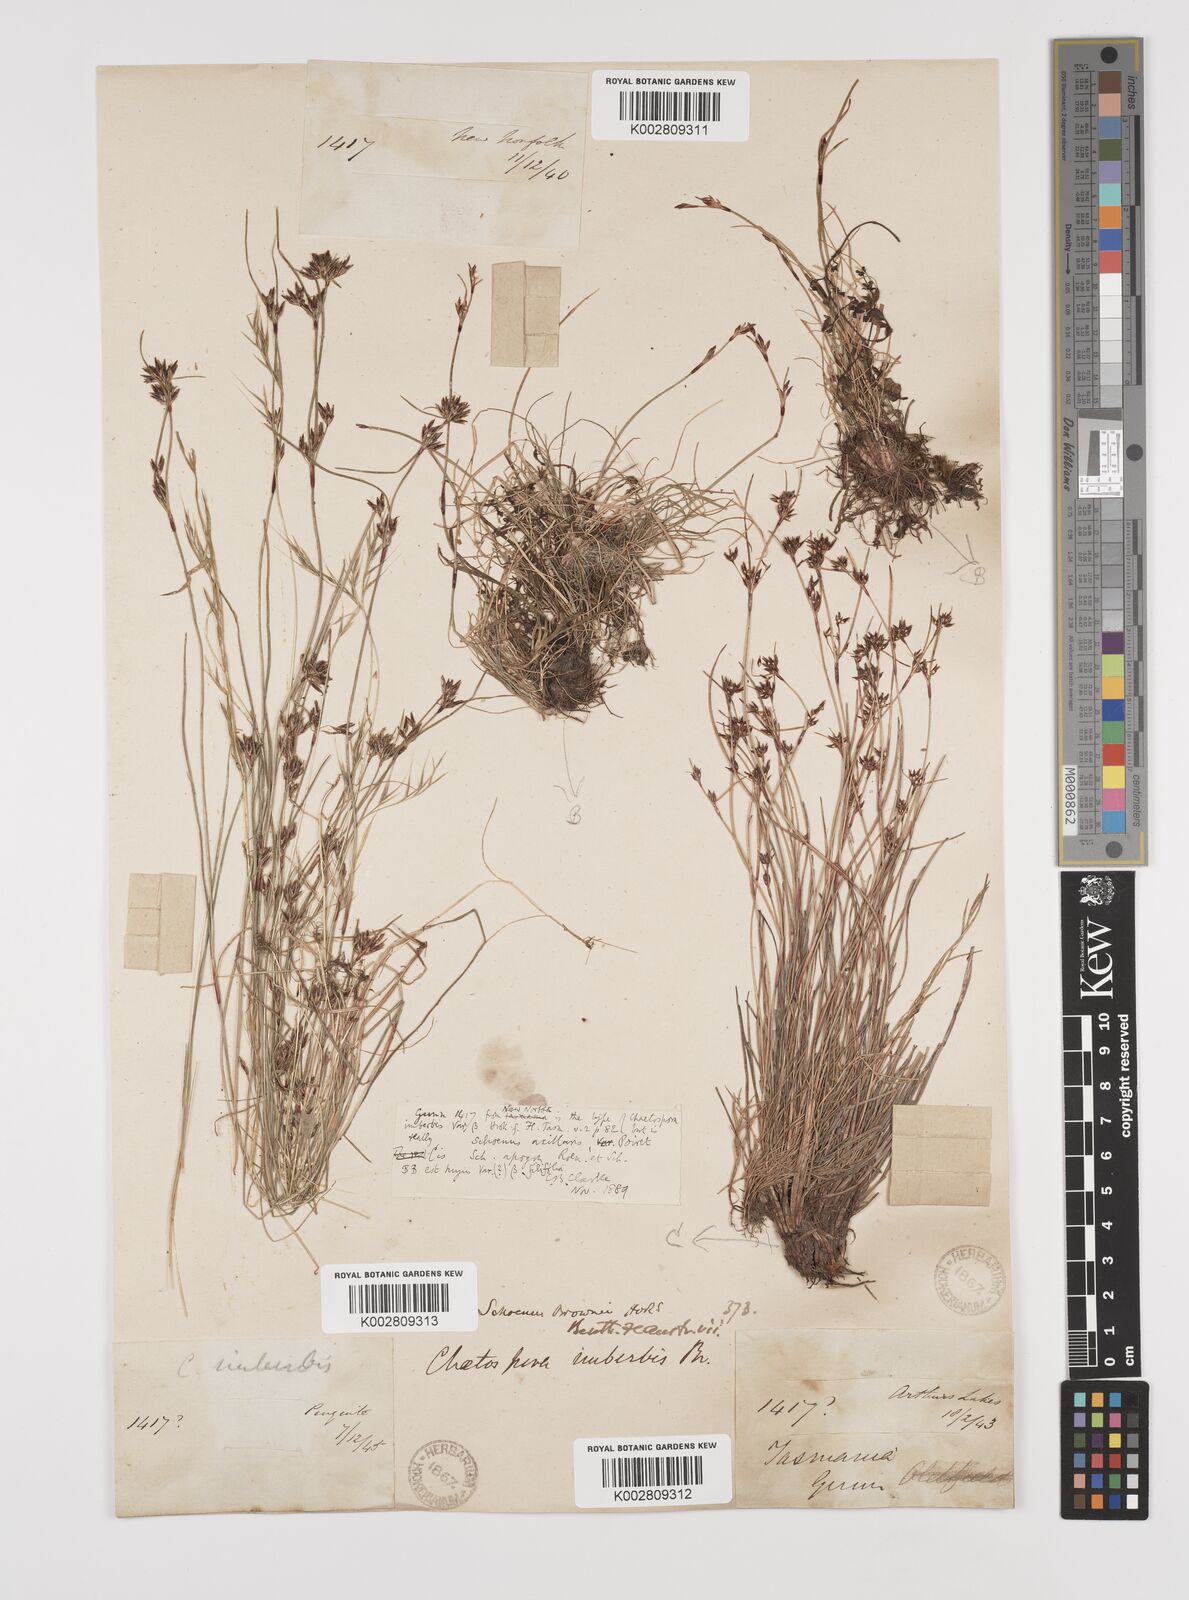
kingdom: Plantae
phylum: Tracheophyta
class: Liliopsida
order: Poales
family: Cyperaceae
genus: Schoenus
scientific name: Schoenus apogon
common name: Smooth bogrush
